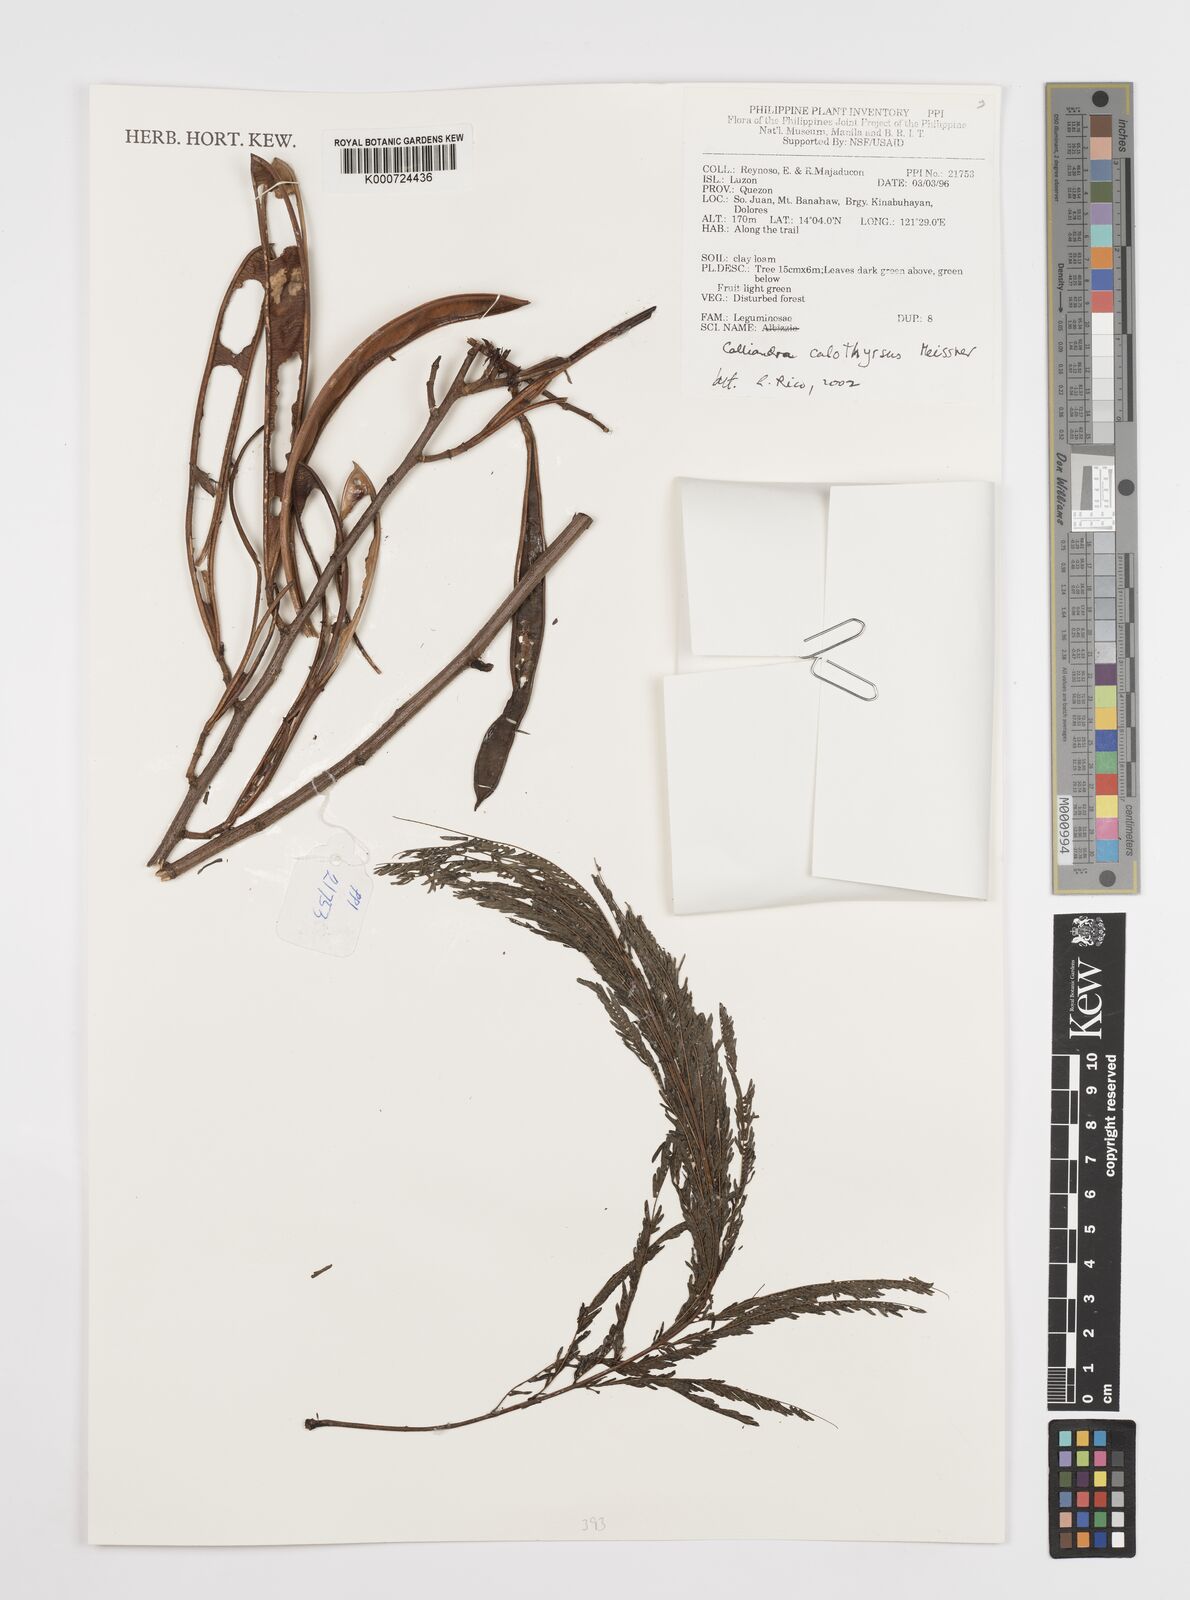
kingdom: Plantae
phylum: Tracheophyta
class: Magnoliopsida
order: Fabales
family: Fabaceae
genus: Calliandra
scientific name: Calliandra houstoniana
